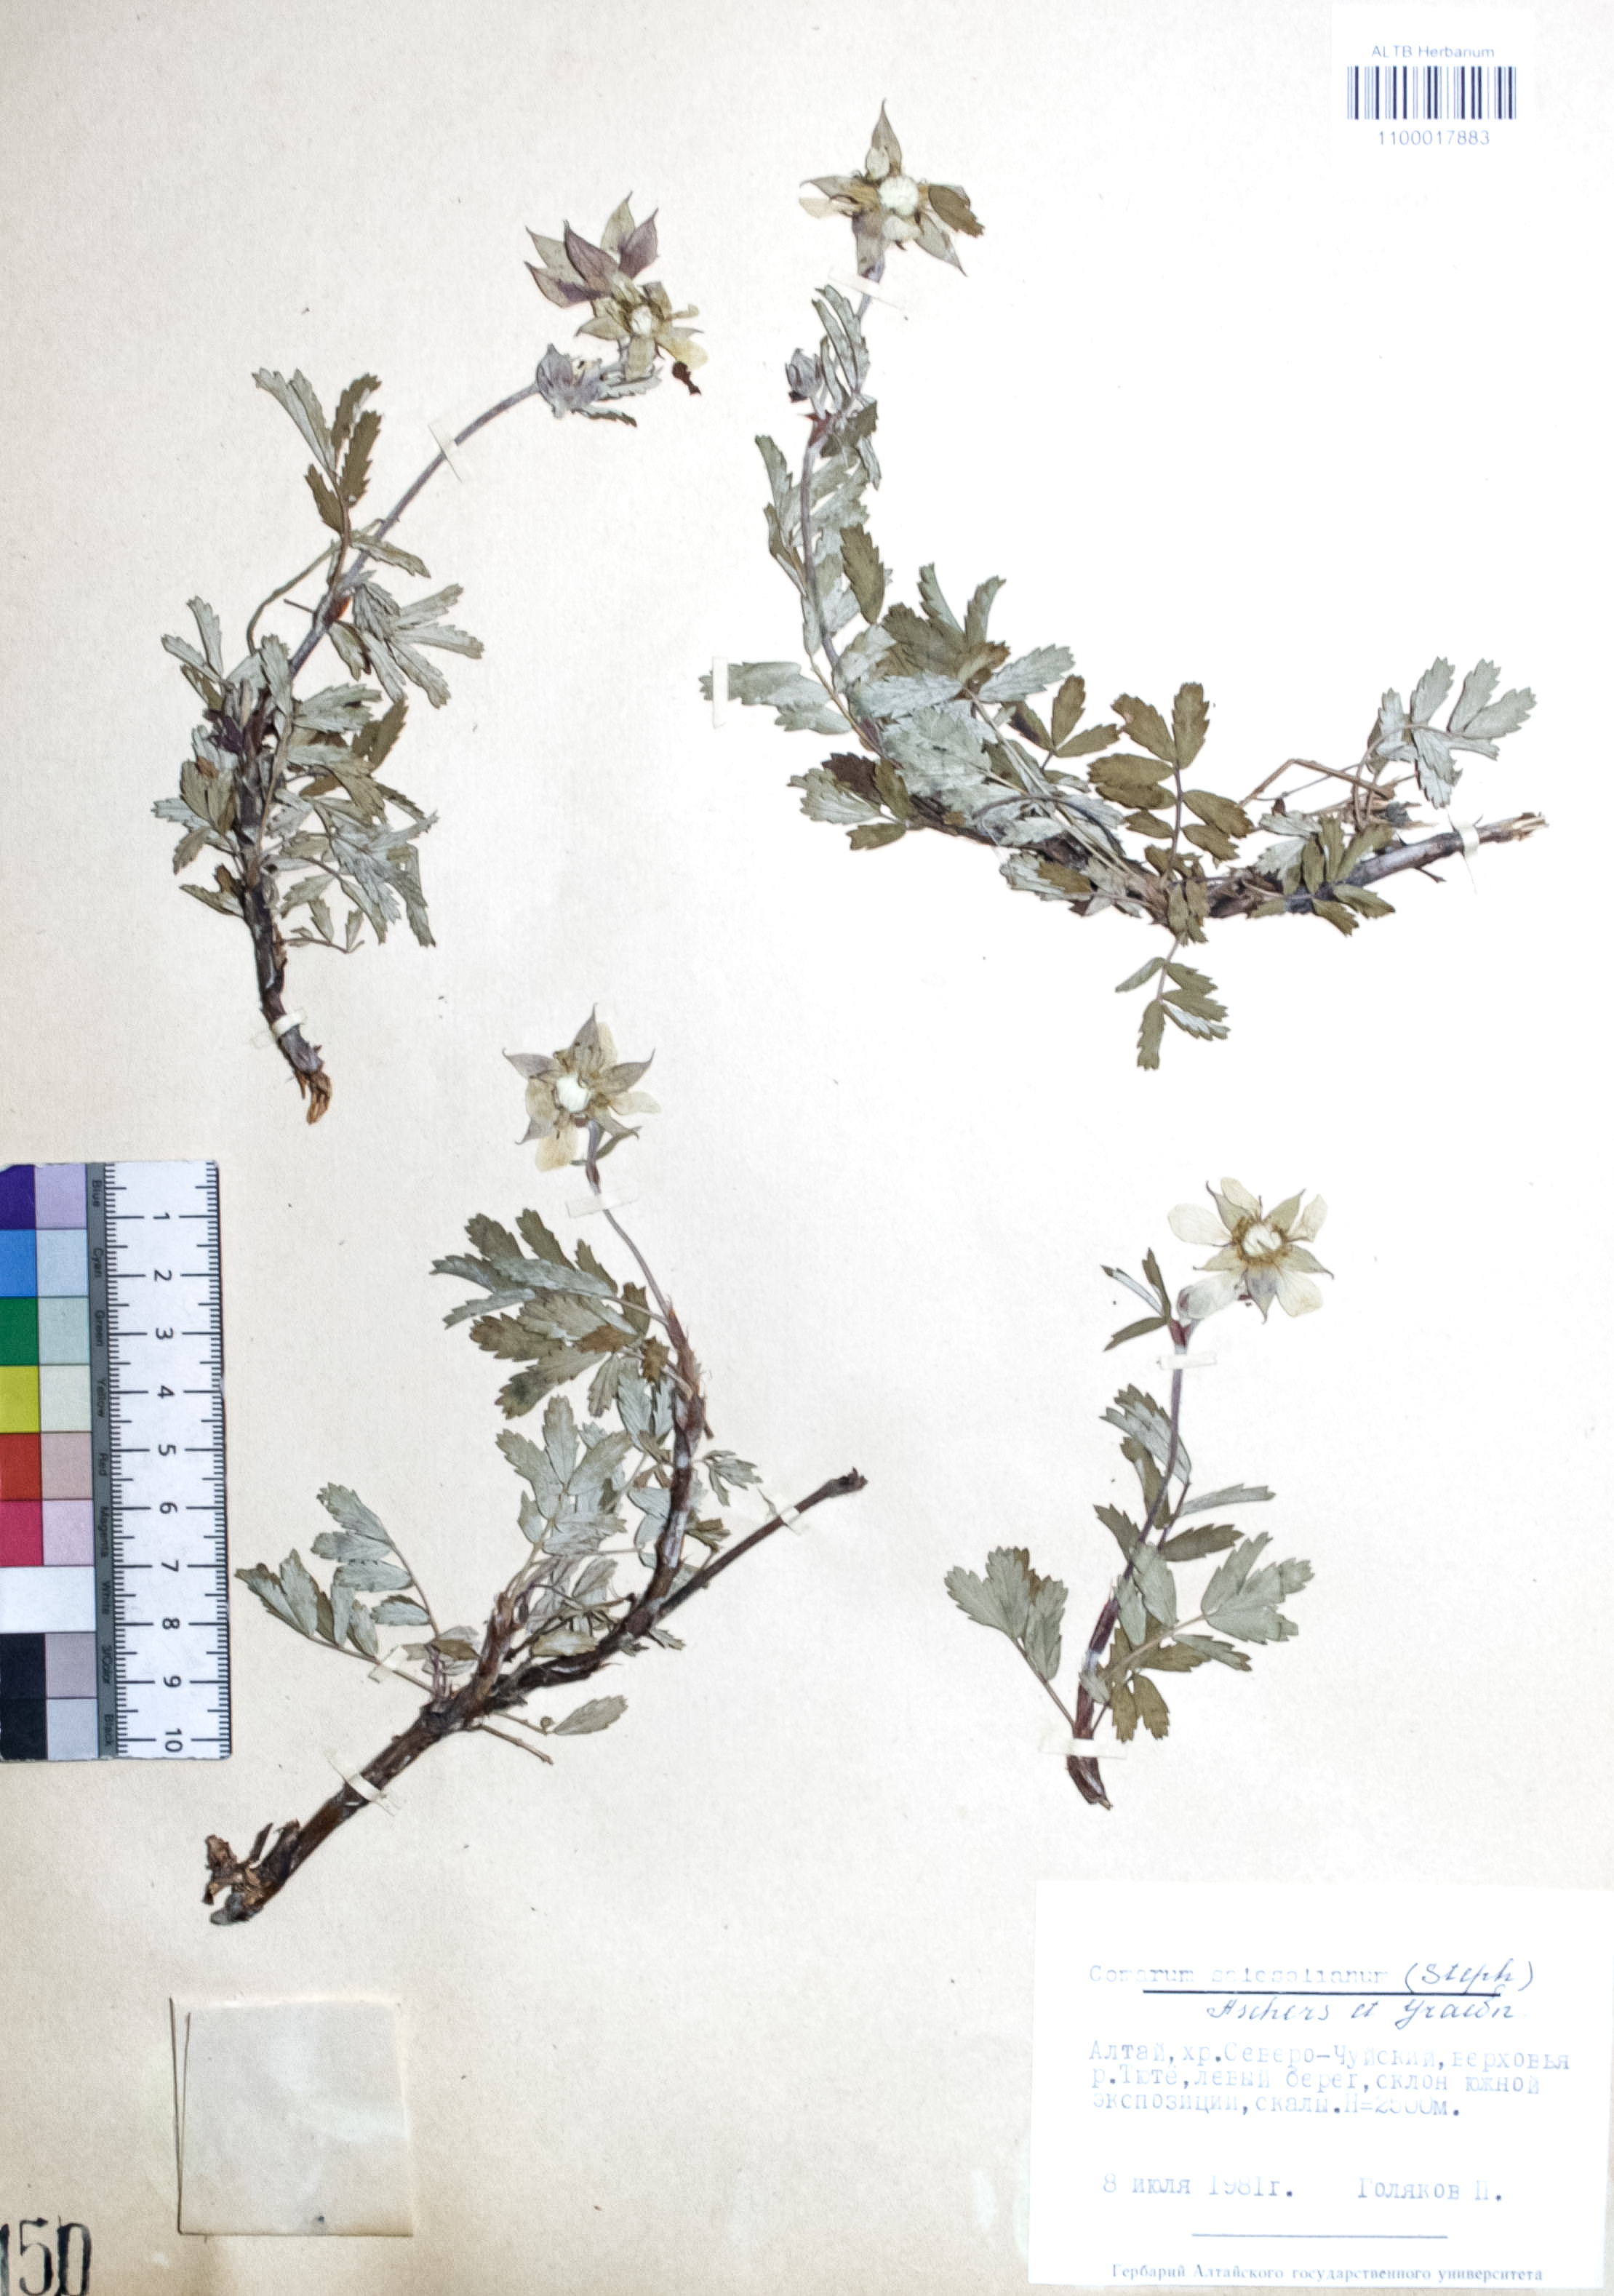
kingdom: Plantae
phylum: Tracheophyta
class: Magnoliopsida
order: Rosales
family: Rosaceae
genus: Farinopsis
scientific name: Farinopsis salesoviana
